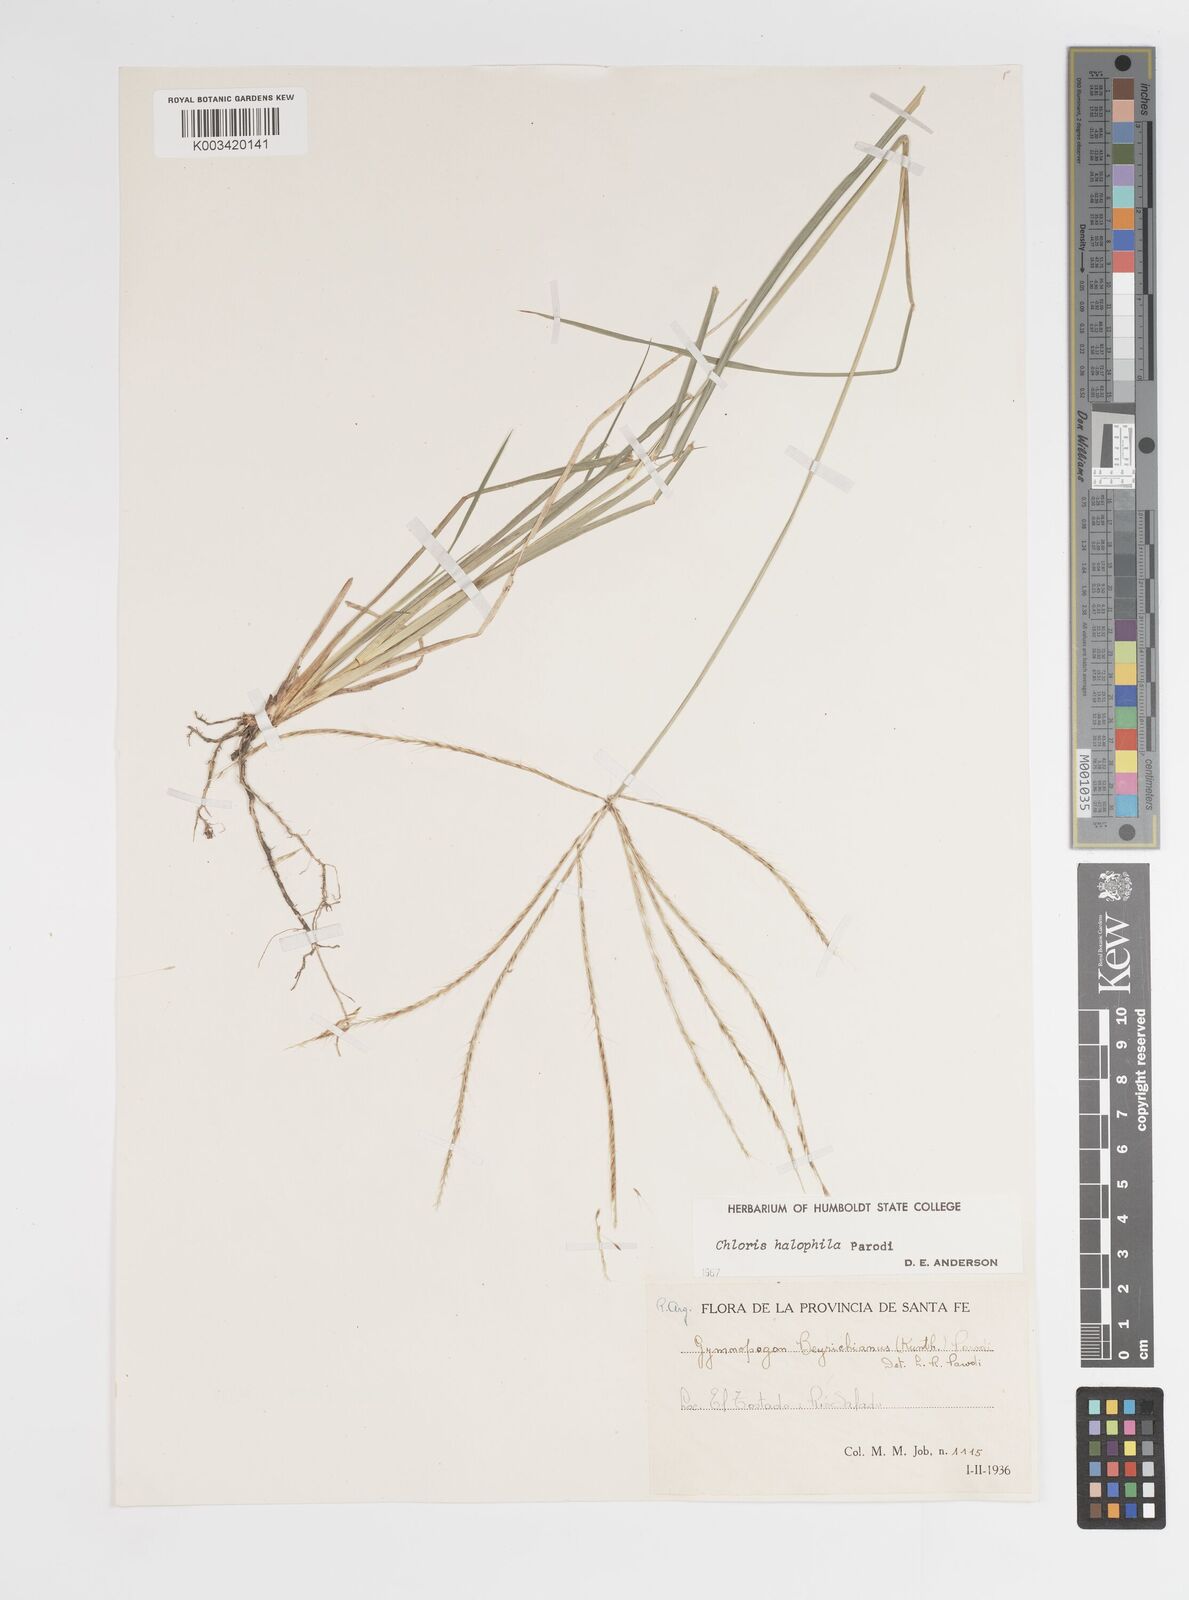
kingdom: Plantae
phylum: Tracheophyta
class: Liliopsida
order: Poales
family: Poaceae
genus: Chloris
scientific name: Chloris halophila
